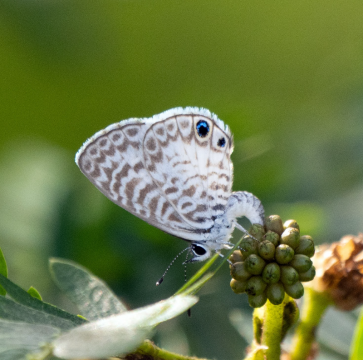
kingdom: Animalia
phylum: Arthropoda
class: Insecta
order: Lepidoptera
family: Lycaenidae
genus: Leptotes
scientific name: Leptotes cassius
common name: Cassius Blue
